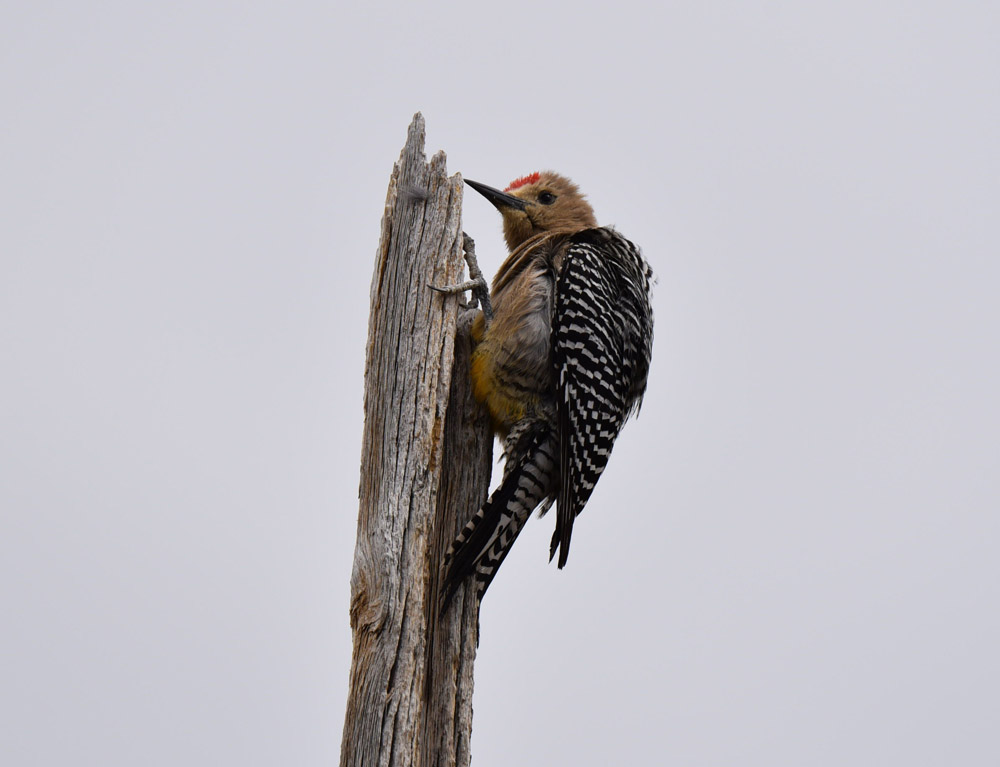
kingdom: Animalia
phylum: Chordata
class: Aves
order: Piciformes
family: Picidae
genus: Melanerpes
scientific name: Melanerpes uropygialis
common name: Gila woodpecker
